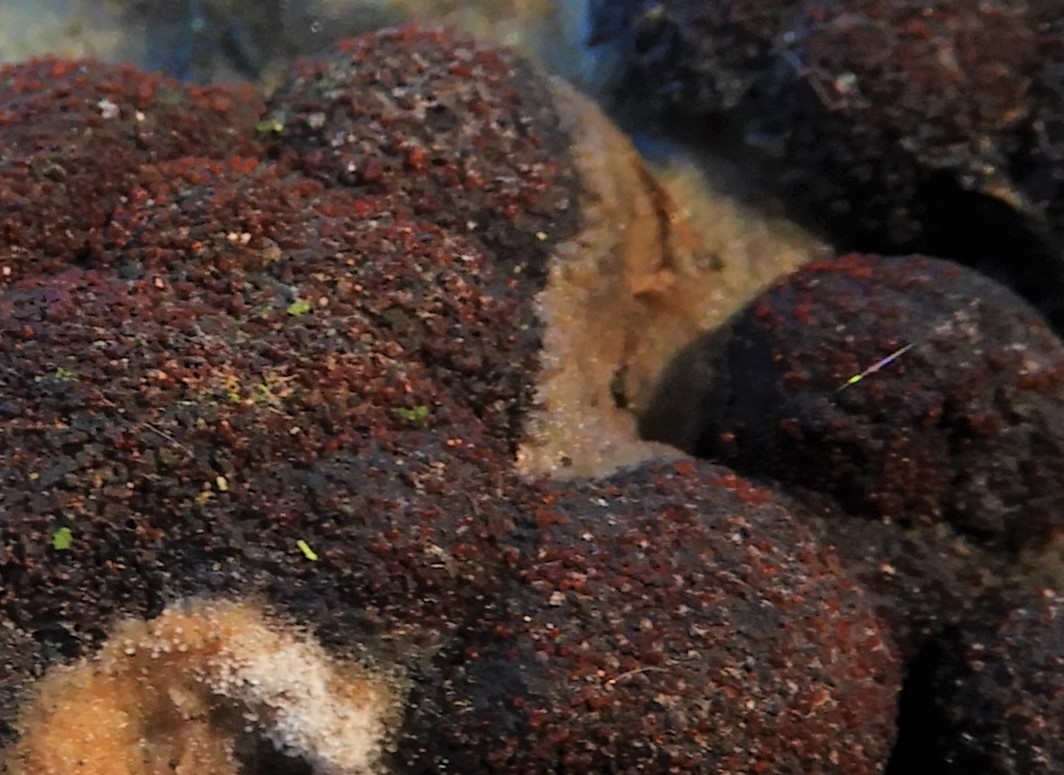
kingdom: Fungi
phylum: Ascomycota
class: Sordariomycetes
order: Hypocreales
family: Nectriaceae
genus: Cosmospora
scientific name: Cosmospora arxii
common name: kuljordbær-cinnobersvamp
